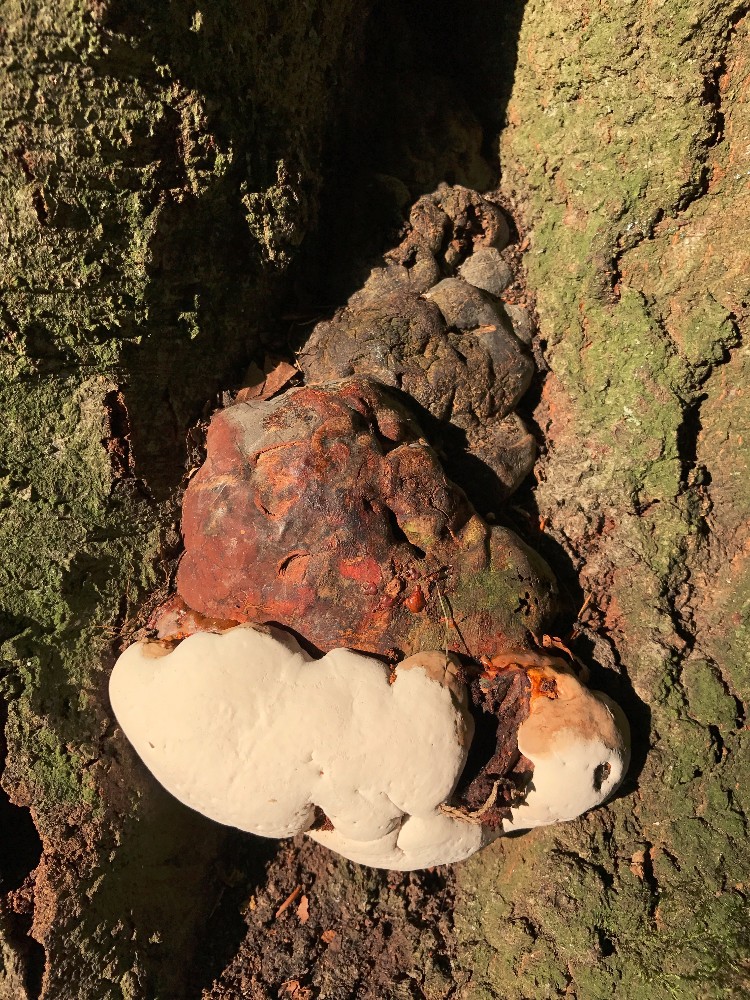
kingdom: Fungi
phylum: Basidiomycota
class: Agaricomycetes
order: Polyporales
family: Polyporaceae
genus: Ganoderma
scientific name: Ganoderma pfeifferi
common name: kobberrød lakporesvamp
